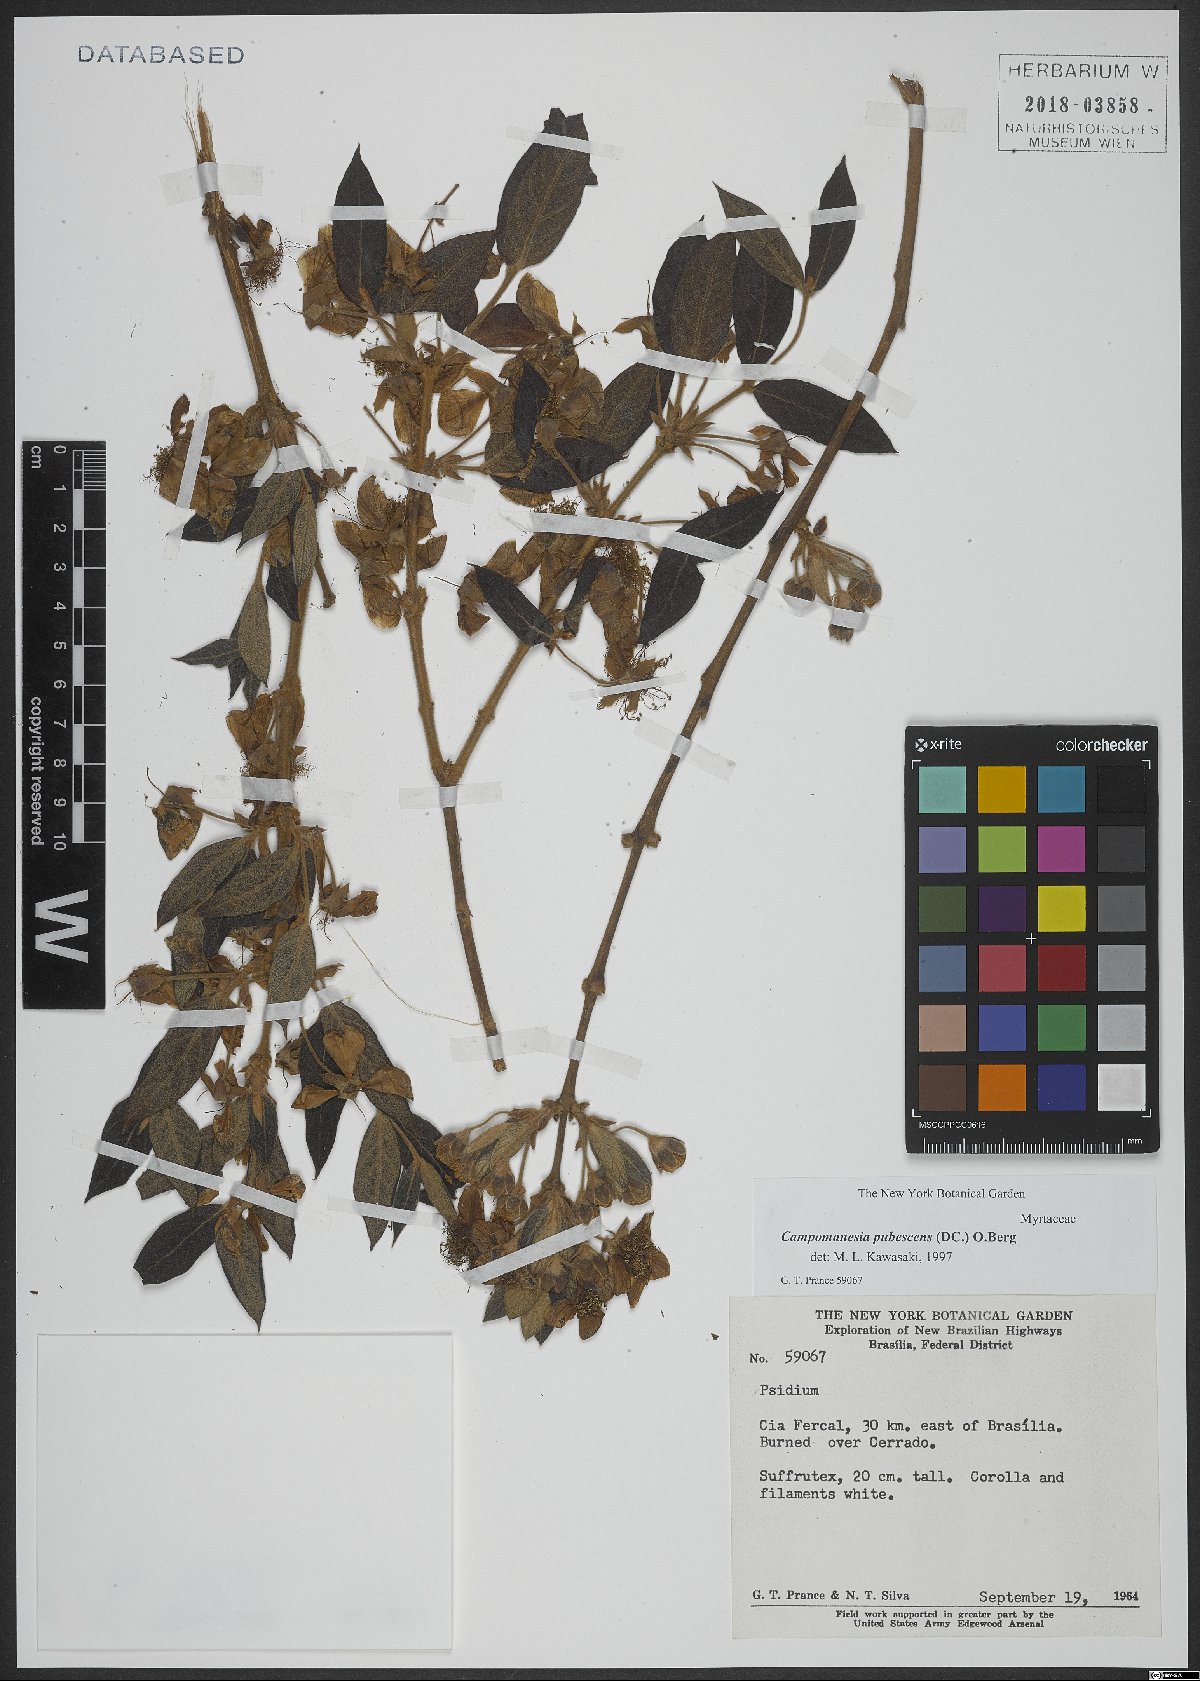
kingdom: Plantae
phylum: Tracheophyta
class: Magnoliopsida
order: Myrtales
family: Myrtaceae
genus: Campomanesia
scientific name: Campomanesia pubescens
